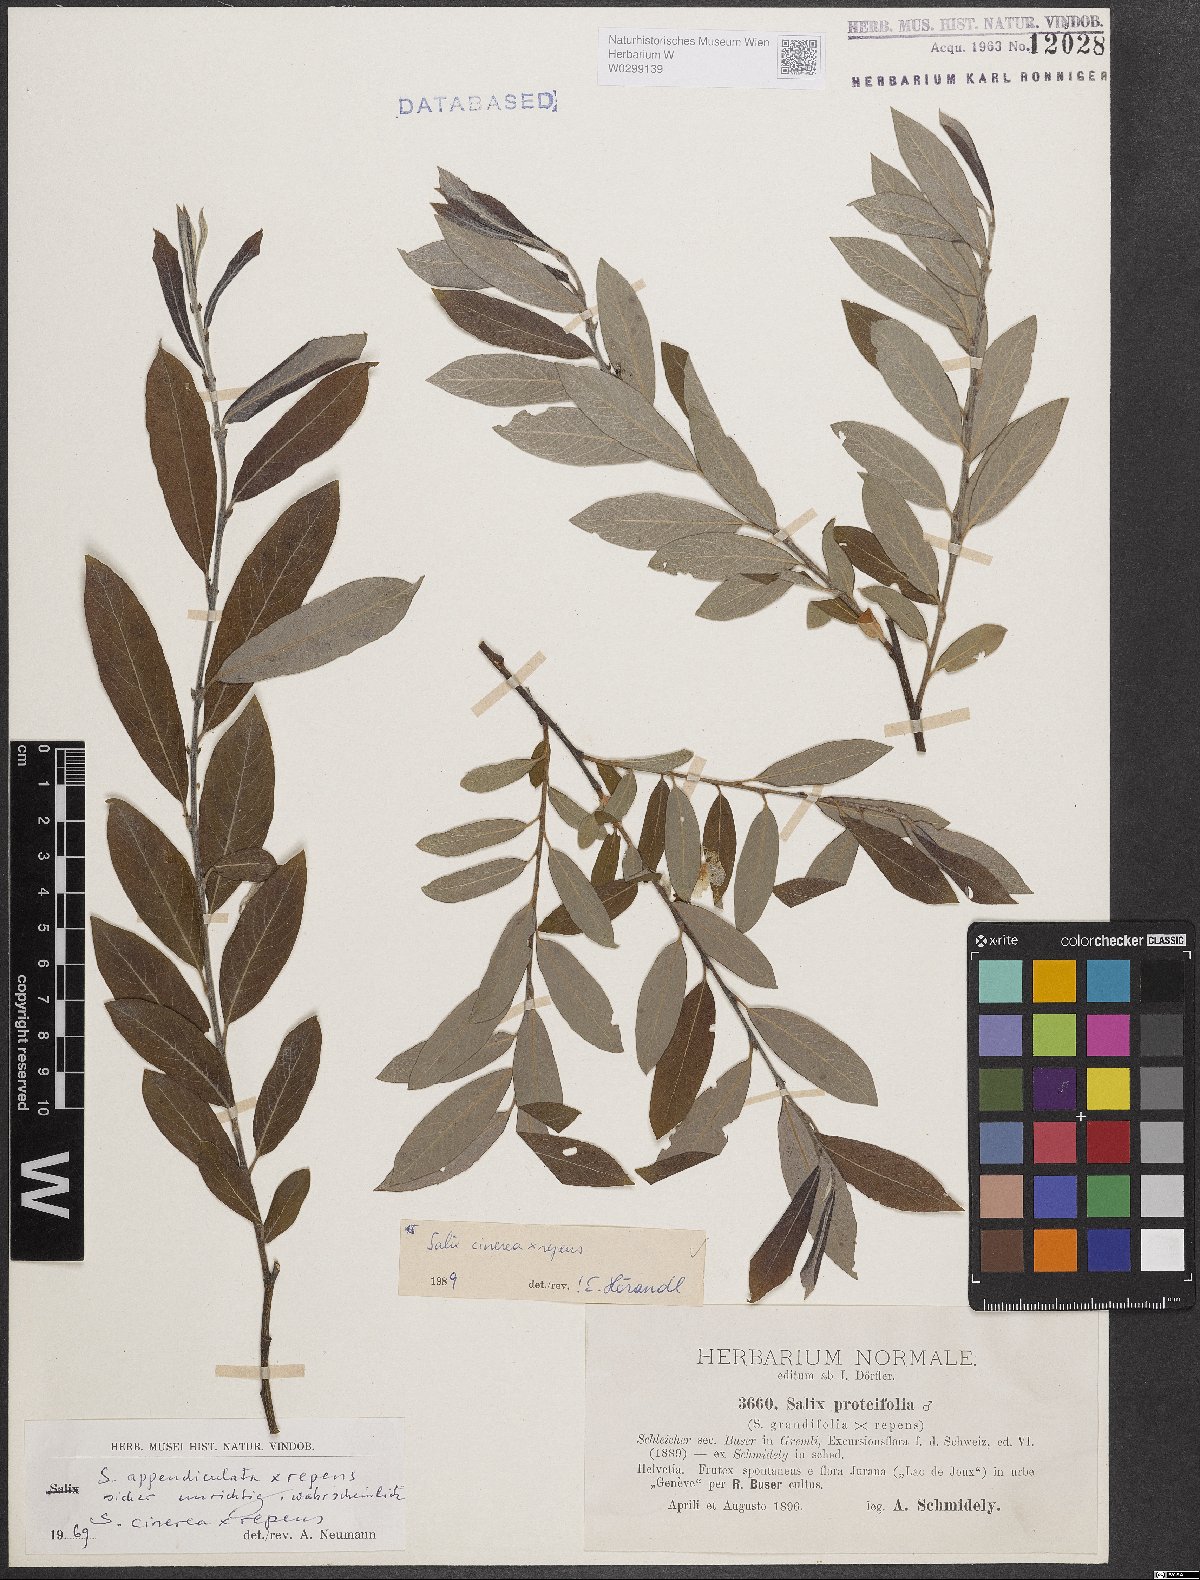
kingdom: Plantae
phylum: Tracheophyta
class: Magnoliopsida
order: Malpighiales
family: Salicaceae
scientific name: Salicaceae
